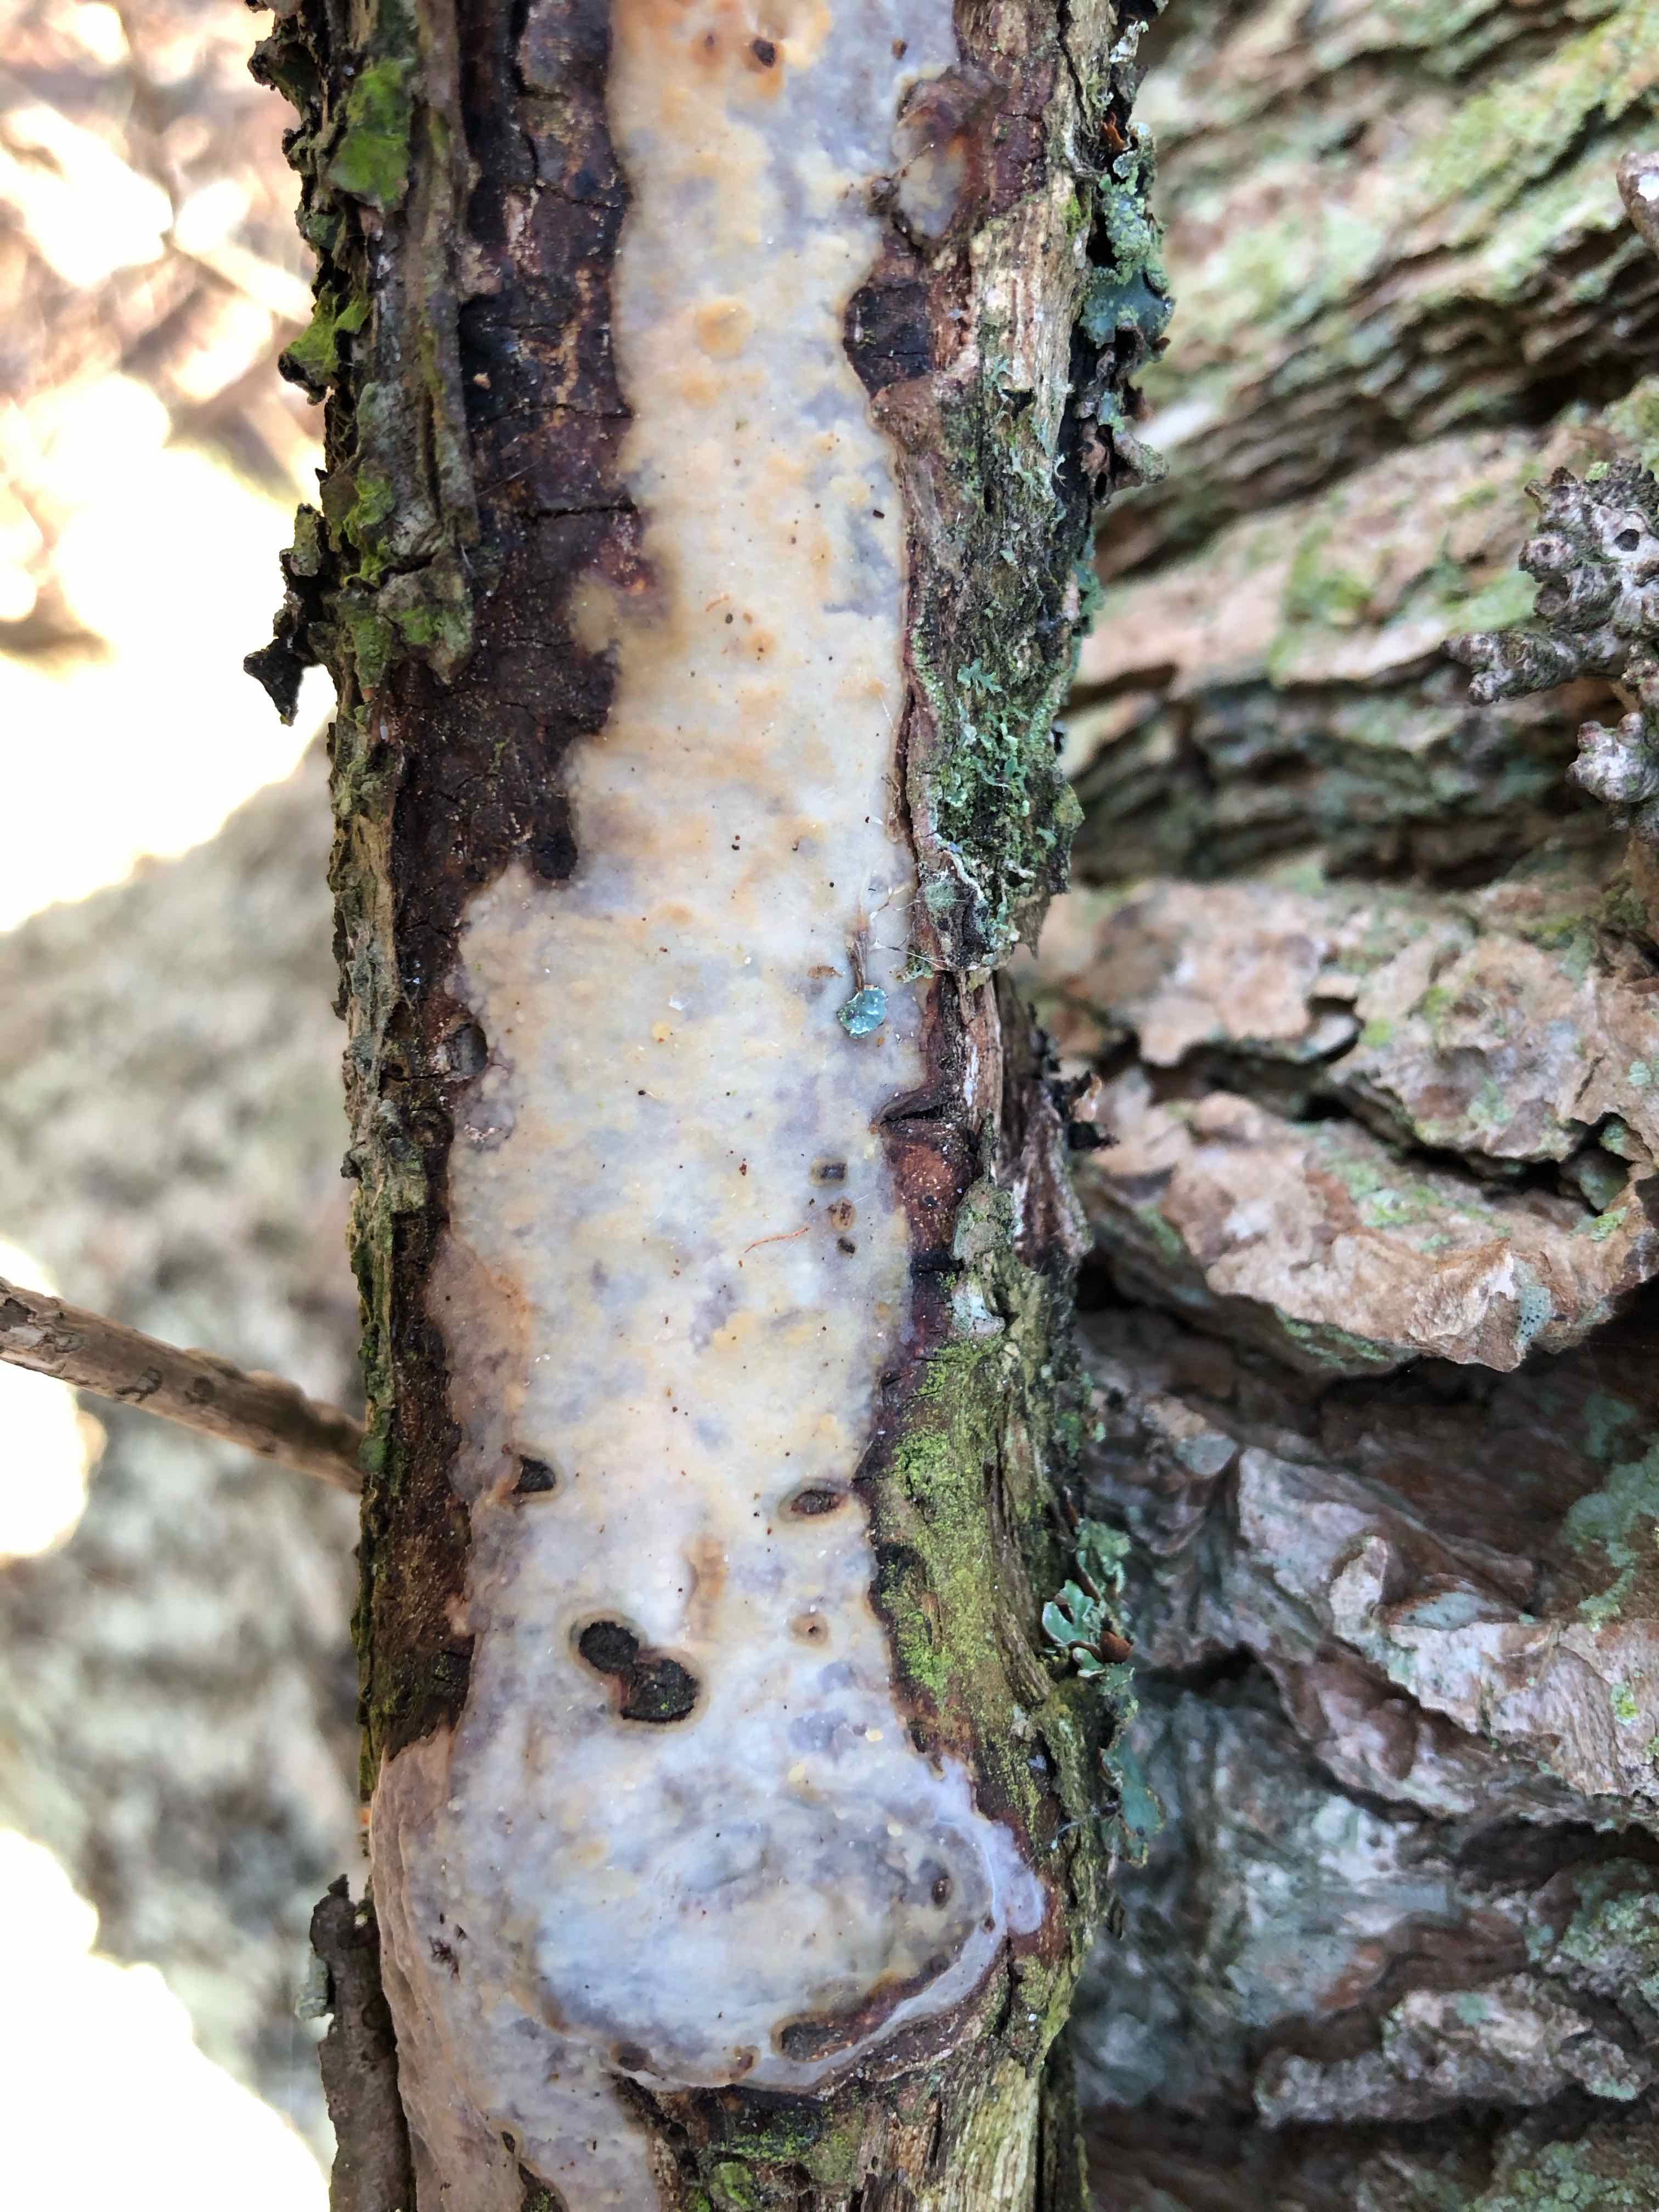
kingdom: Fungi
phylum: Basidiomycota
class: Agaricomycetes
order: Corticiales
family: Vuilleminiaceae
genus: Vuilleminia
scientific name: Vuilleminia comedens
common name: almindelig barksprænger
